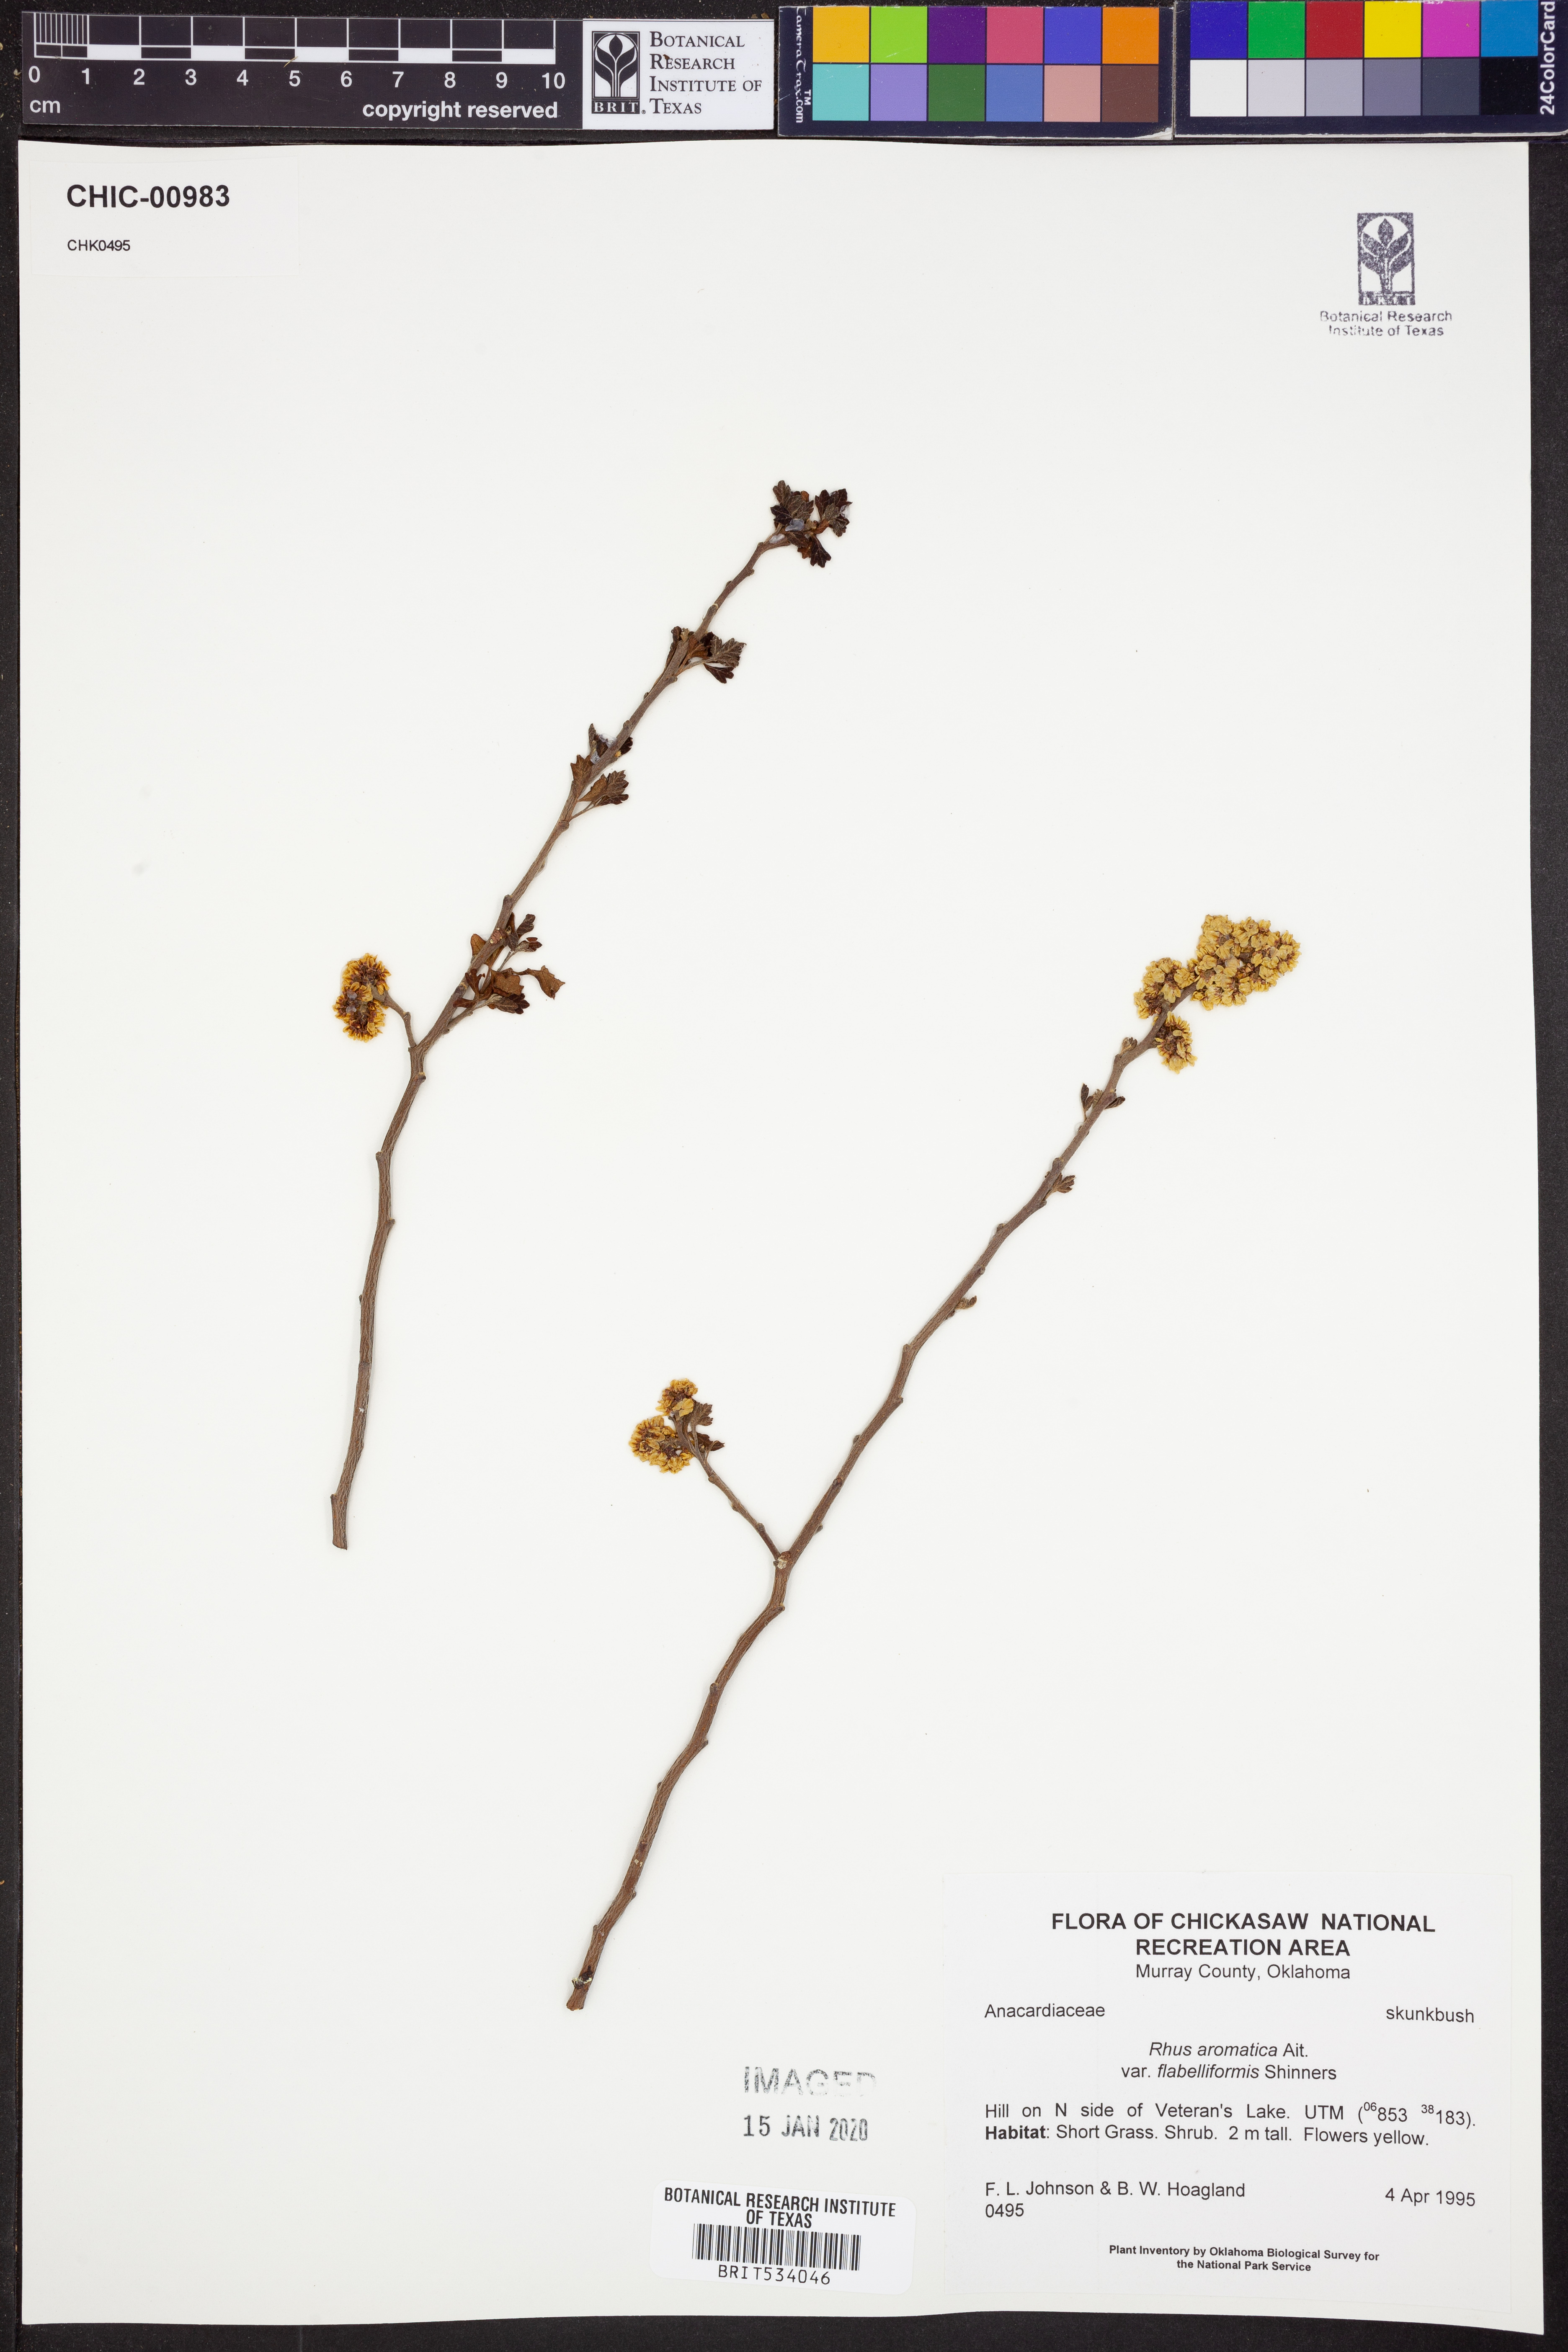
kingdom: Plantae
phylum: Tracheophyta
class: Magnoliopsida
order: Sapindales
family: Anacardiaceae
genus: Rhus
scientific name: Rhus trilobata
